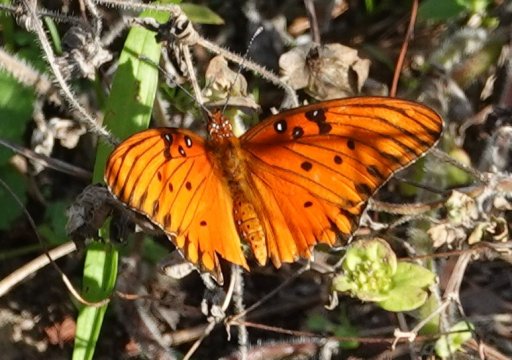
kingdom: Animalia
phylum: Arthropoda
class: Insecta
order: Lepidoptera
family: Nymphalidae
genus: Dione
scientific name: Dione vanillae
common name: Gulf Fritillary
